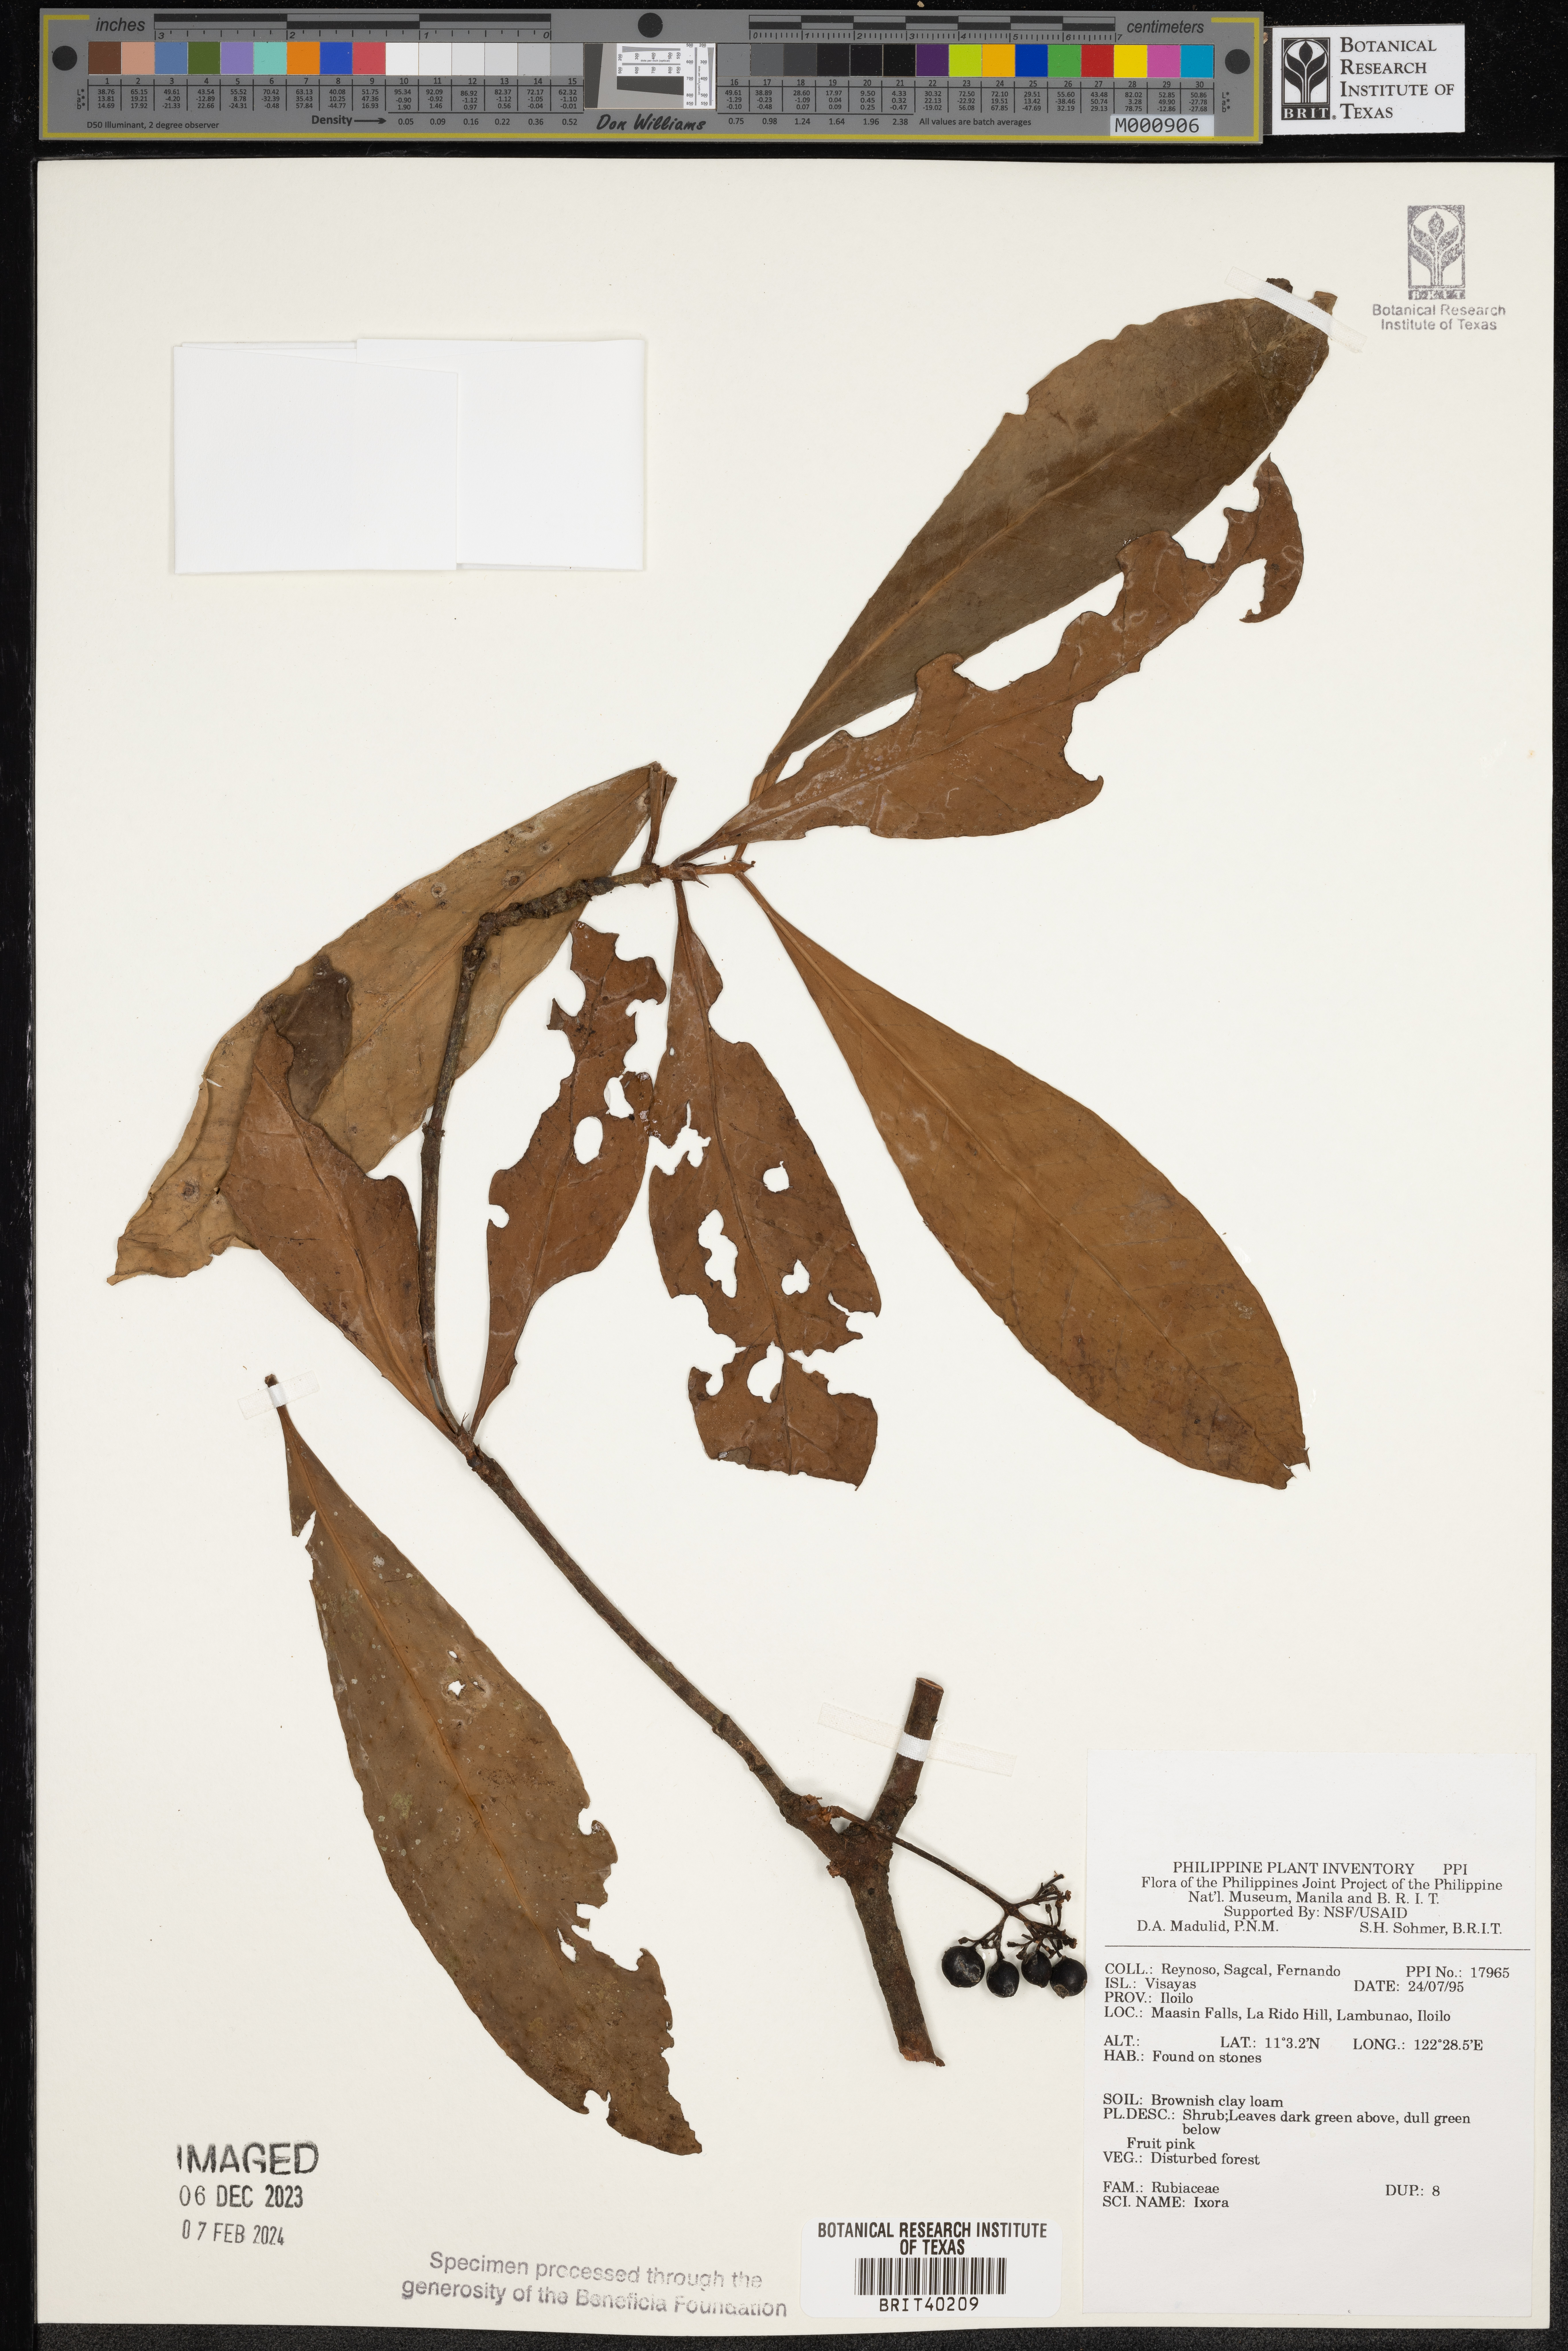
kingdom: Plantae
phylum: Tracheophyta
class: Magnoliopsida
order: Gentianales
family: Rubiaceae
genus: Ixora
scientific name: Ixora
